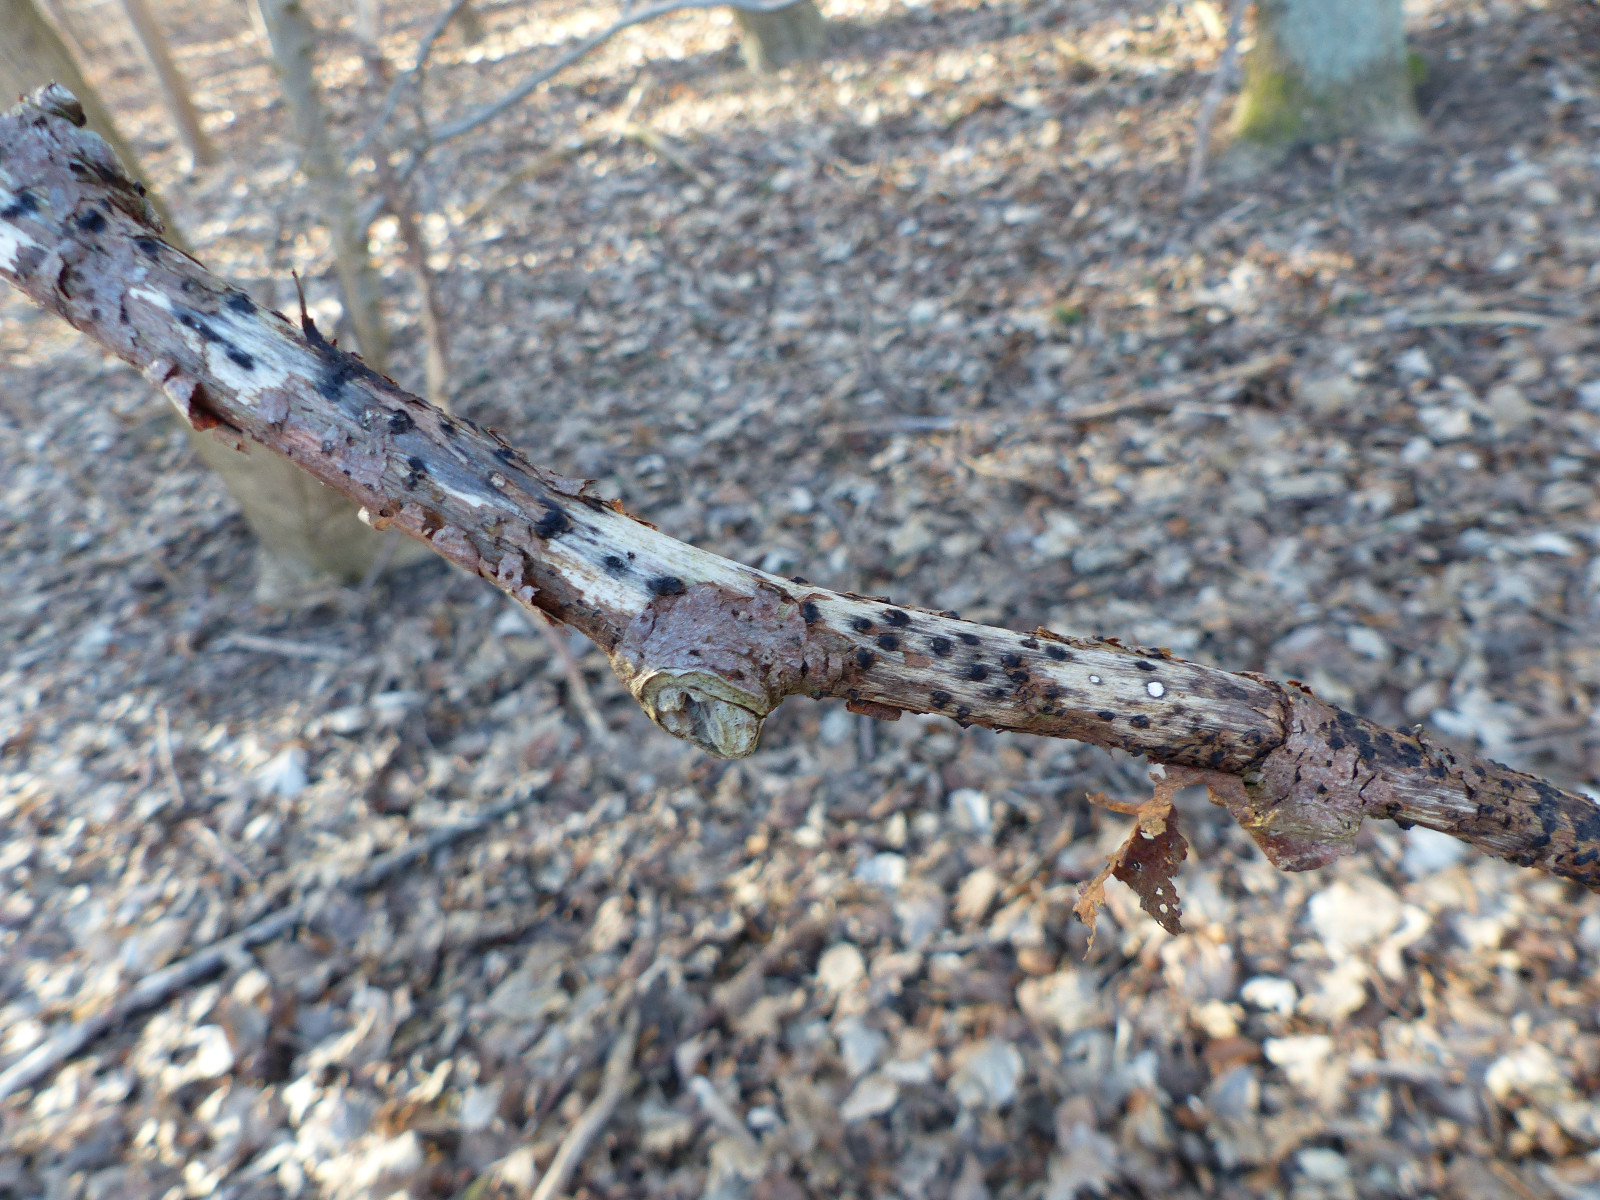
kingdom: Fungi
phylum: Ascomycota
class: Sordariomycetes
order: Xylariales
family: Diatrypaceae
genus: Eutypella
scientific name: Eutypella stellulata
